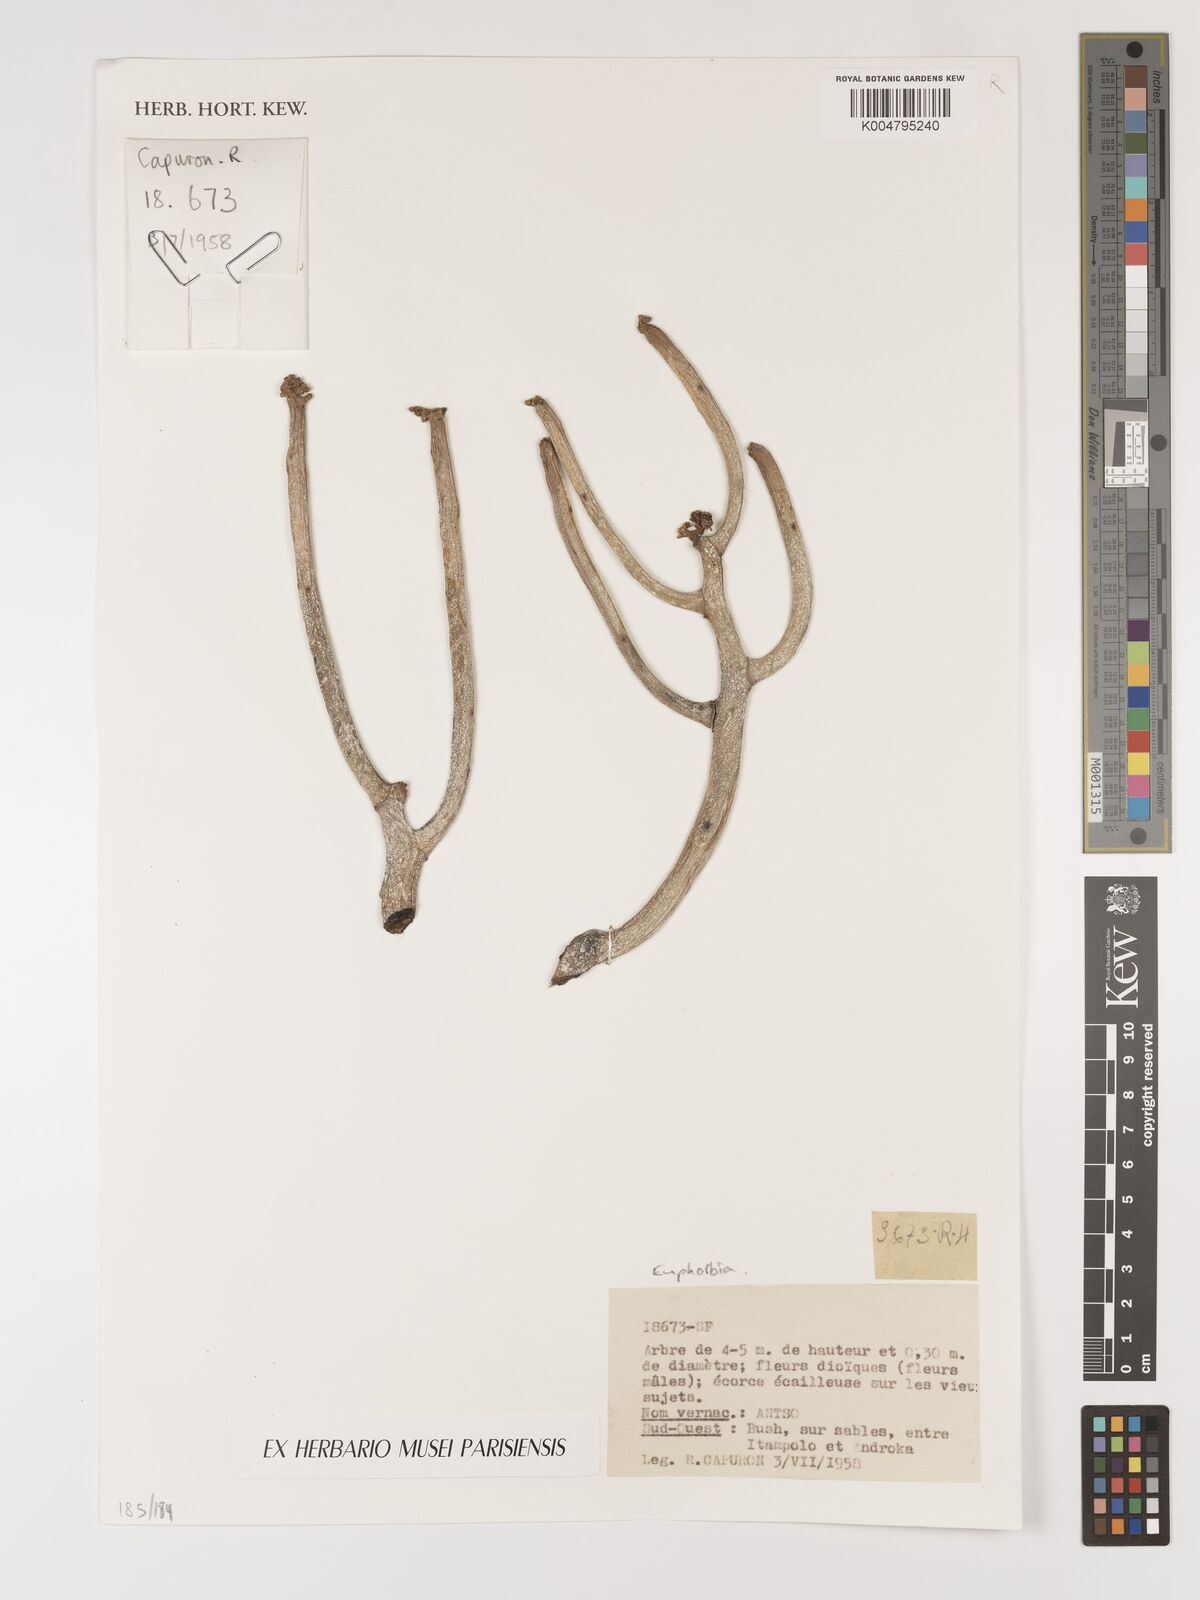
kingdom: Plantae
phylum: Tracheophyta
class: Magnoliopsida
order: Malpighiales
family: Euphorbiaceae
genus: Euphorbia
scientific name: Euphorbia
